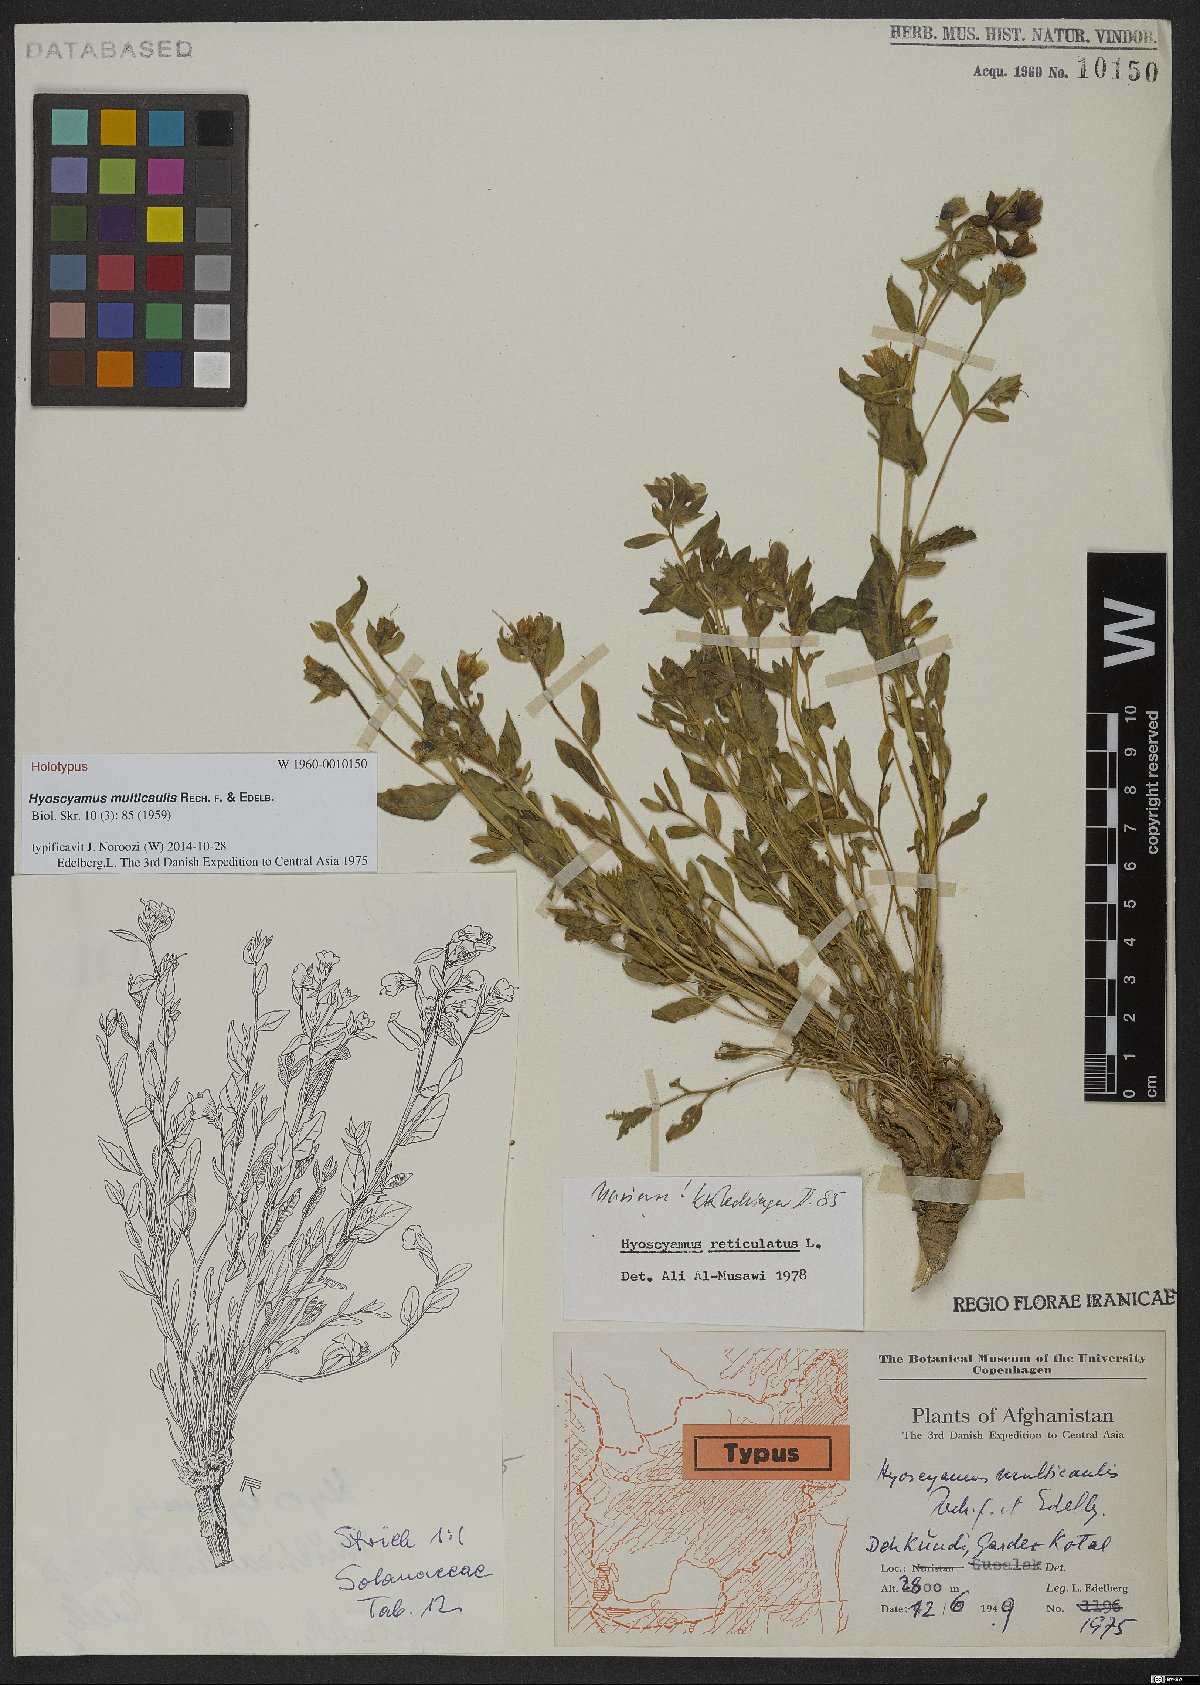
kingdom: Plantae
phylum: Tracheophyta
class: Magnoliopsida
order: Solanales
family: Solanaceae
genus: Hyoscyamus
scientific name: Hyoscyamus multicaulis
